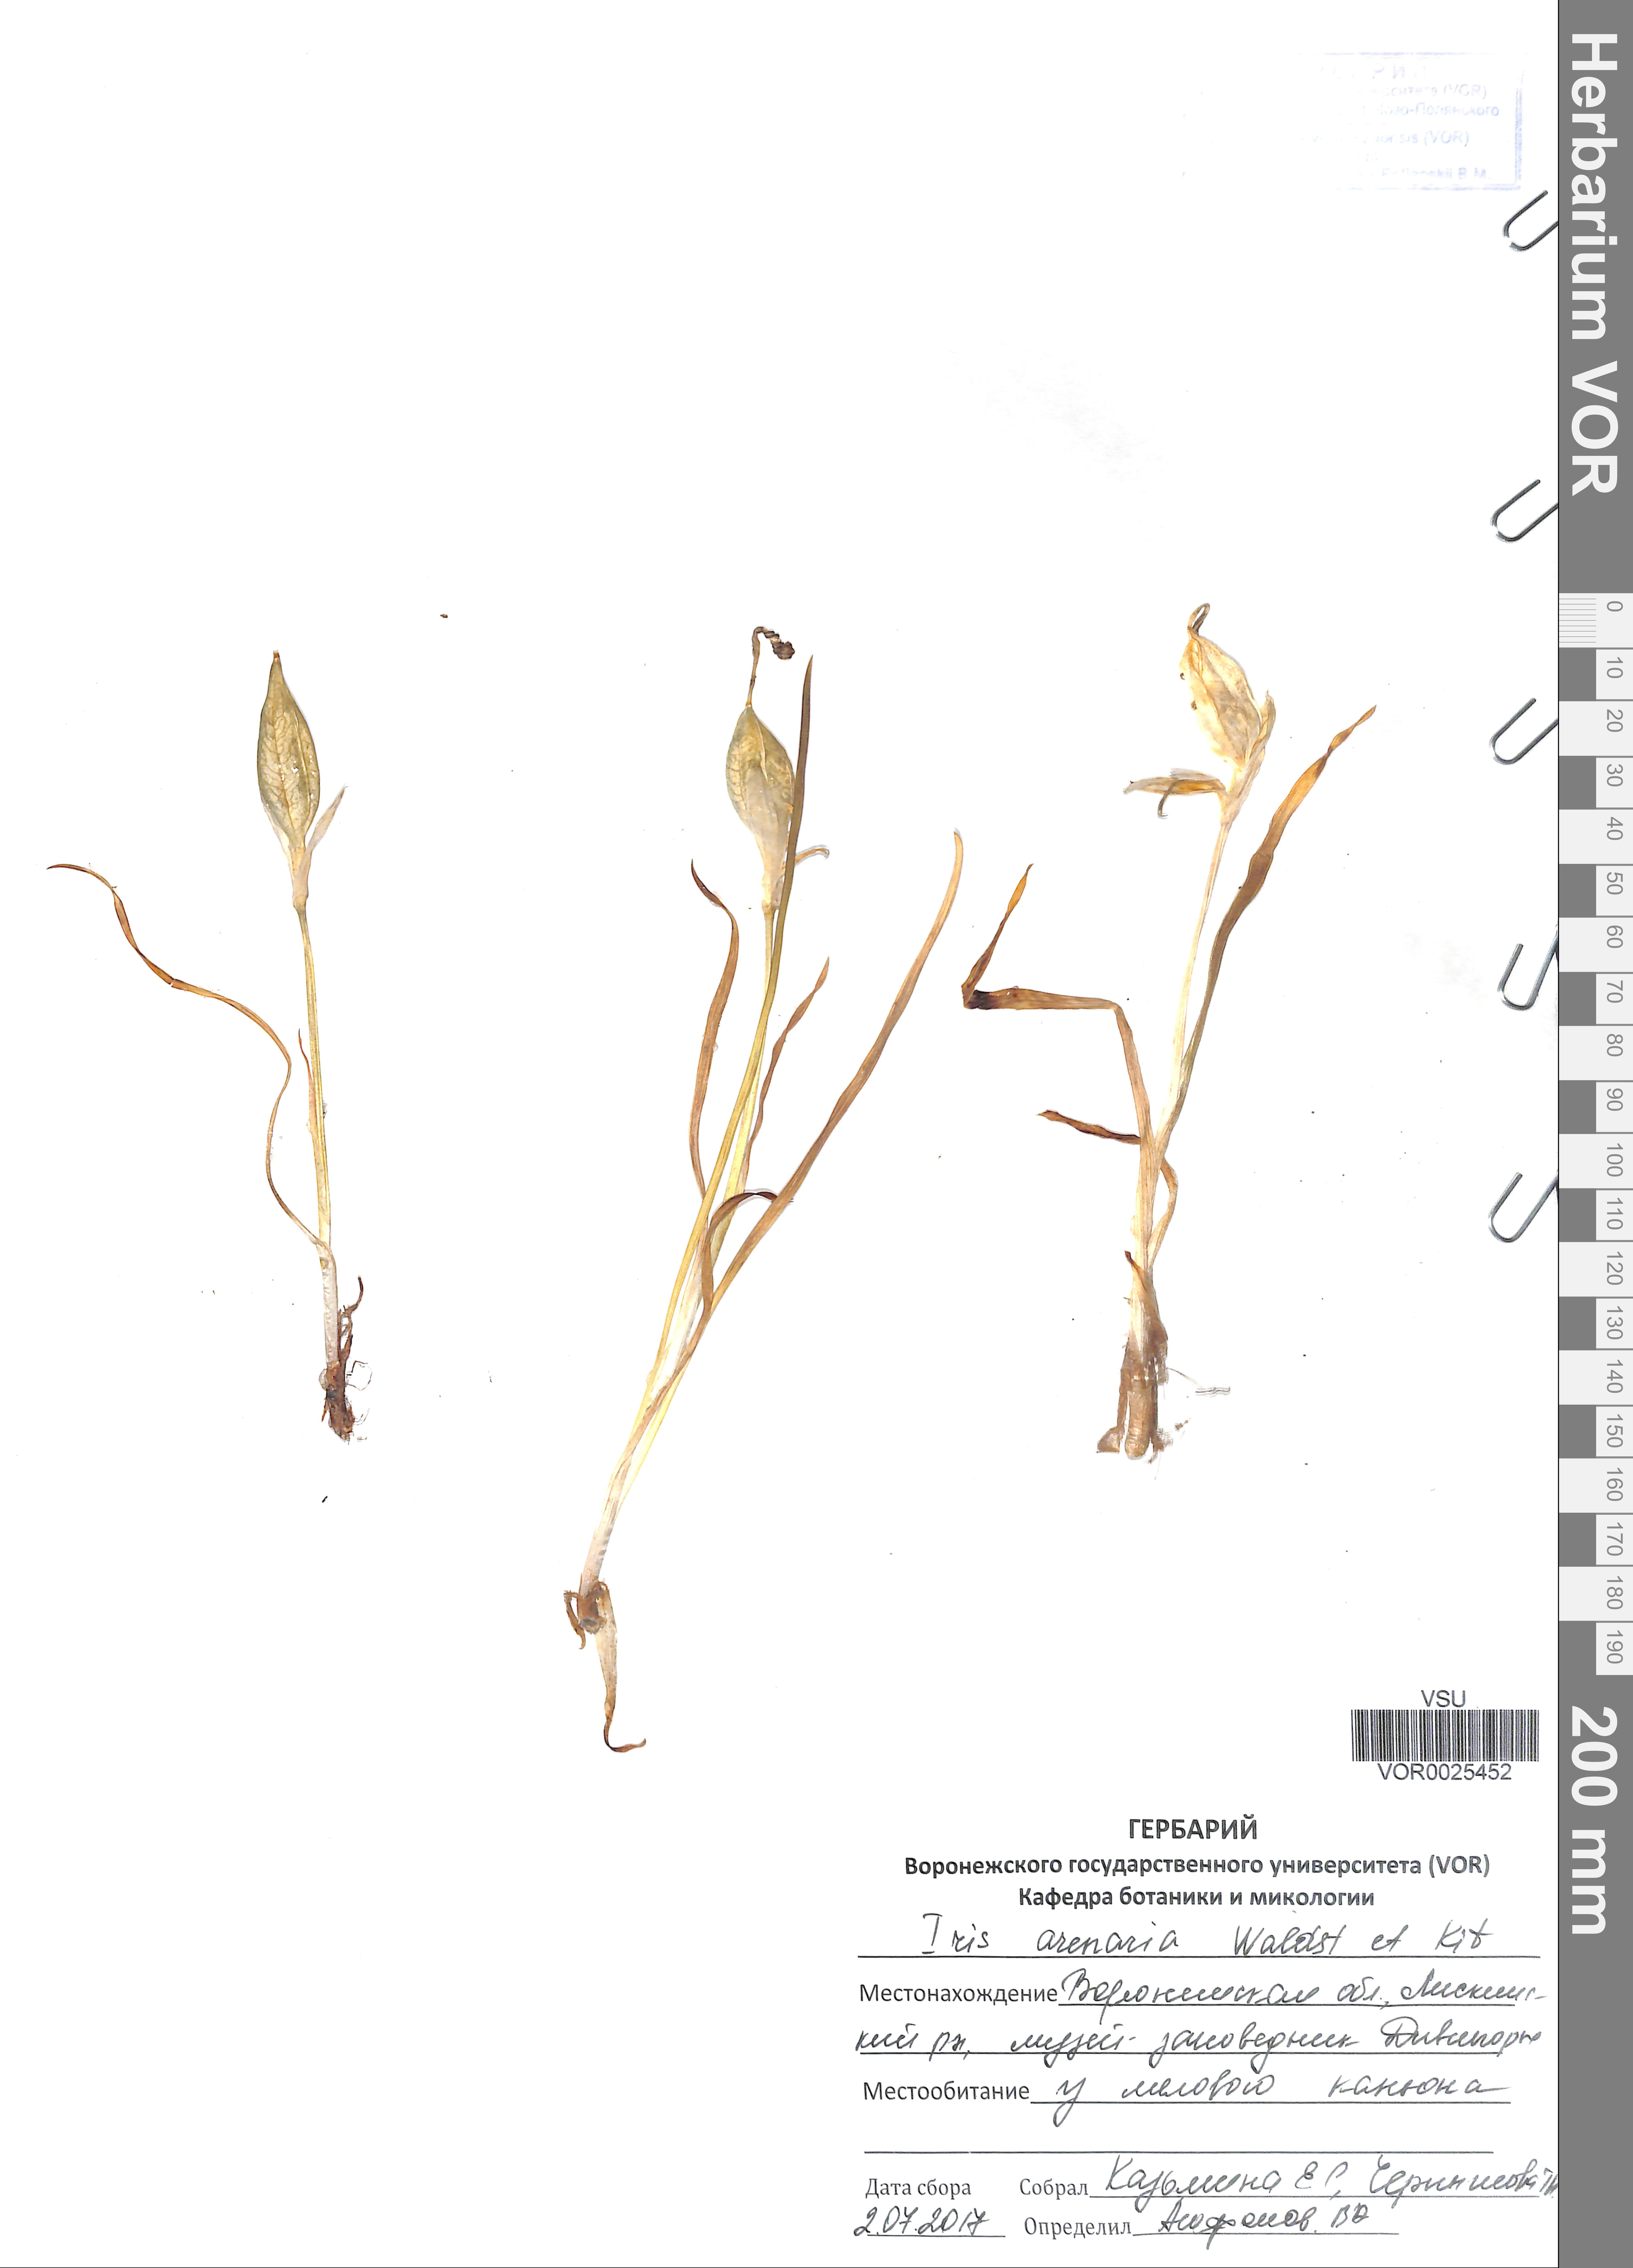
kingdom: Plantae
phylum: Tracheophyta
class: Liliopsida
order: Asparagales
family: Iridaceae
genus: Iris
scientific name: Iris arenaria
